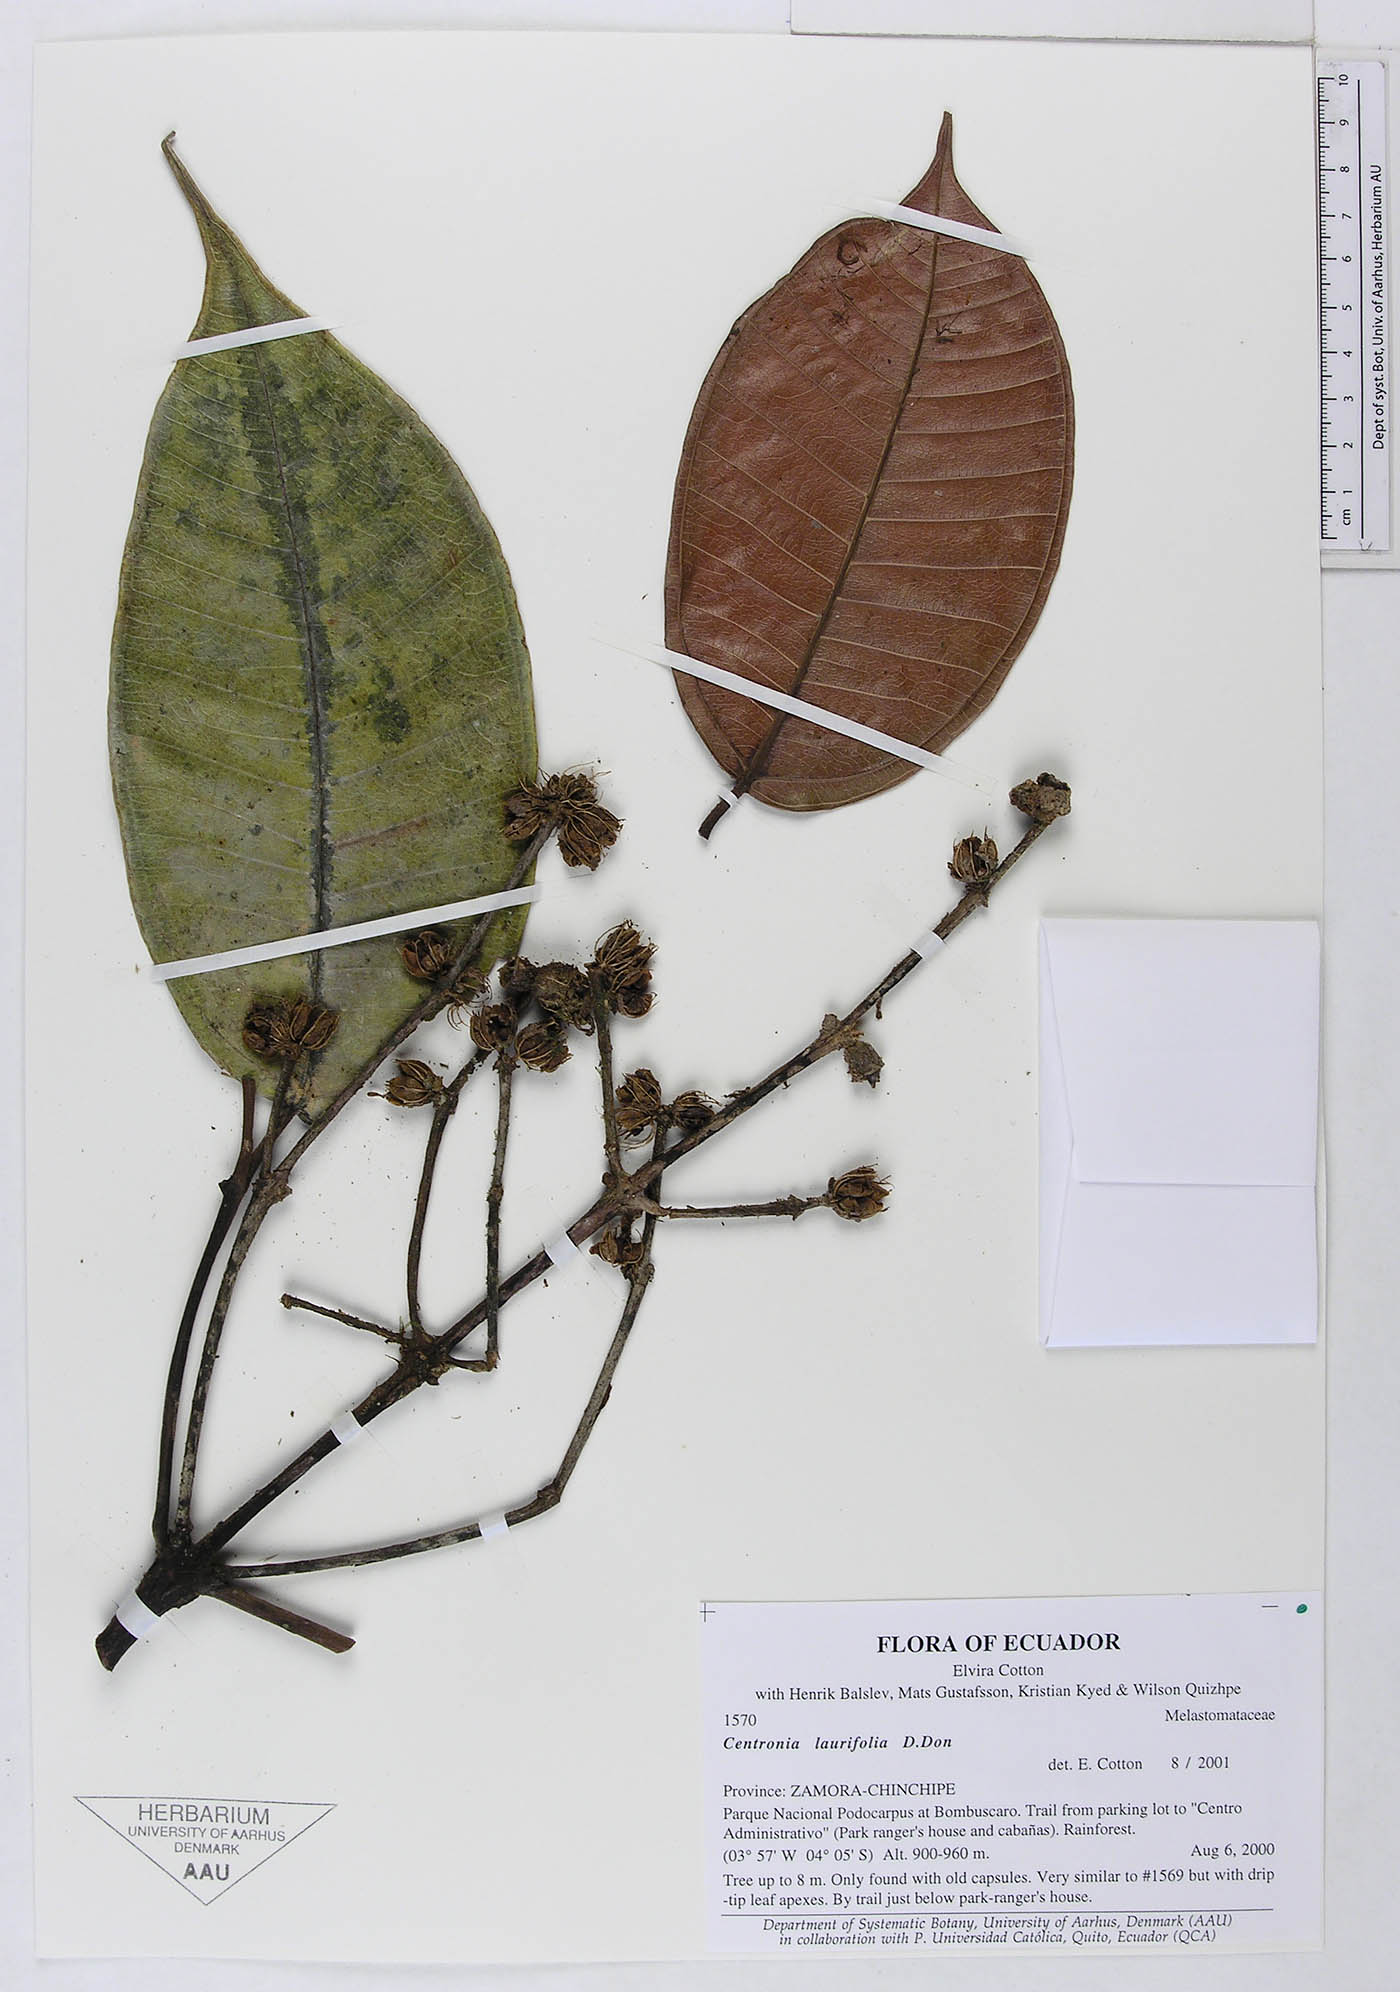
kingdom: Plantae
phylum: Tracheophyta
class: Magnoliopsida
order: Myrtales
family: Melastomataceae
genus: Centronia
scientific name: Centronia laurifolia
